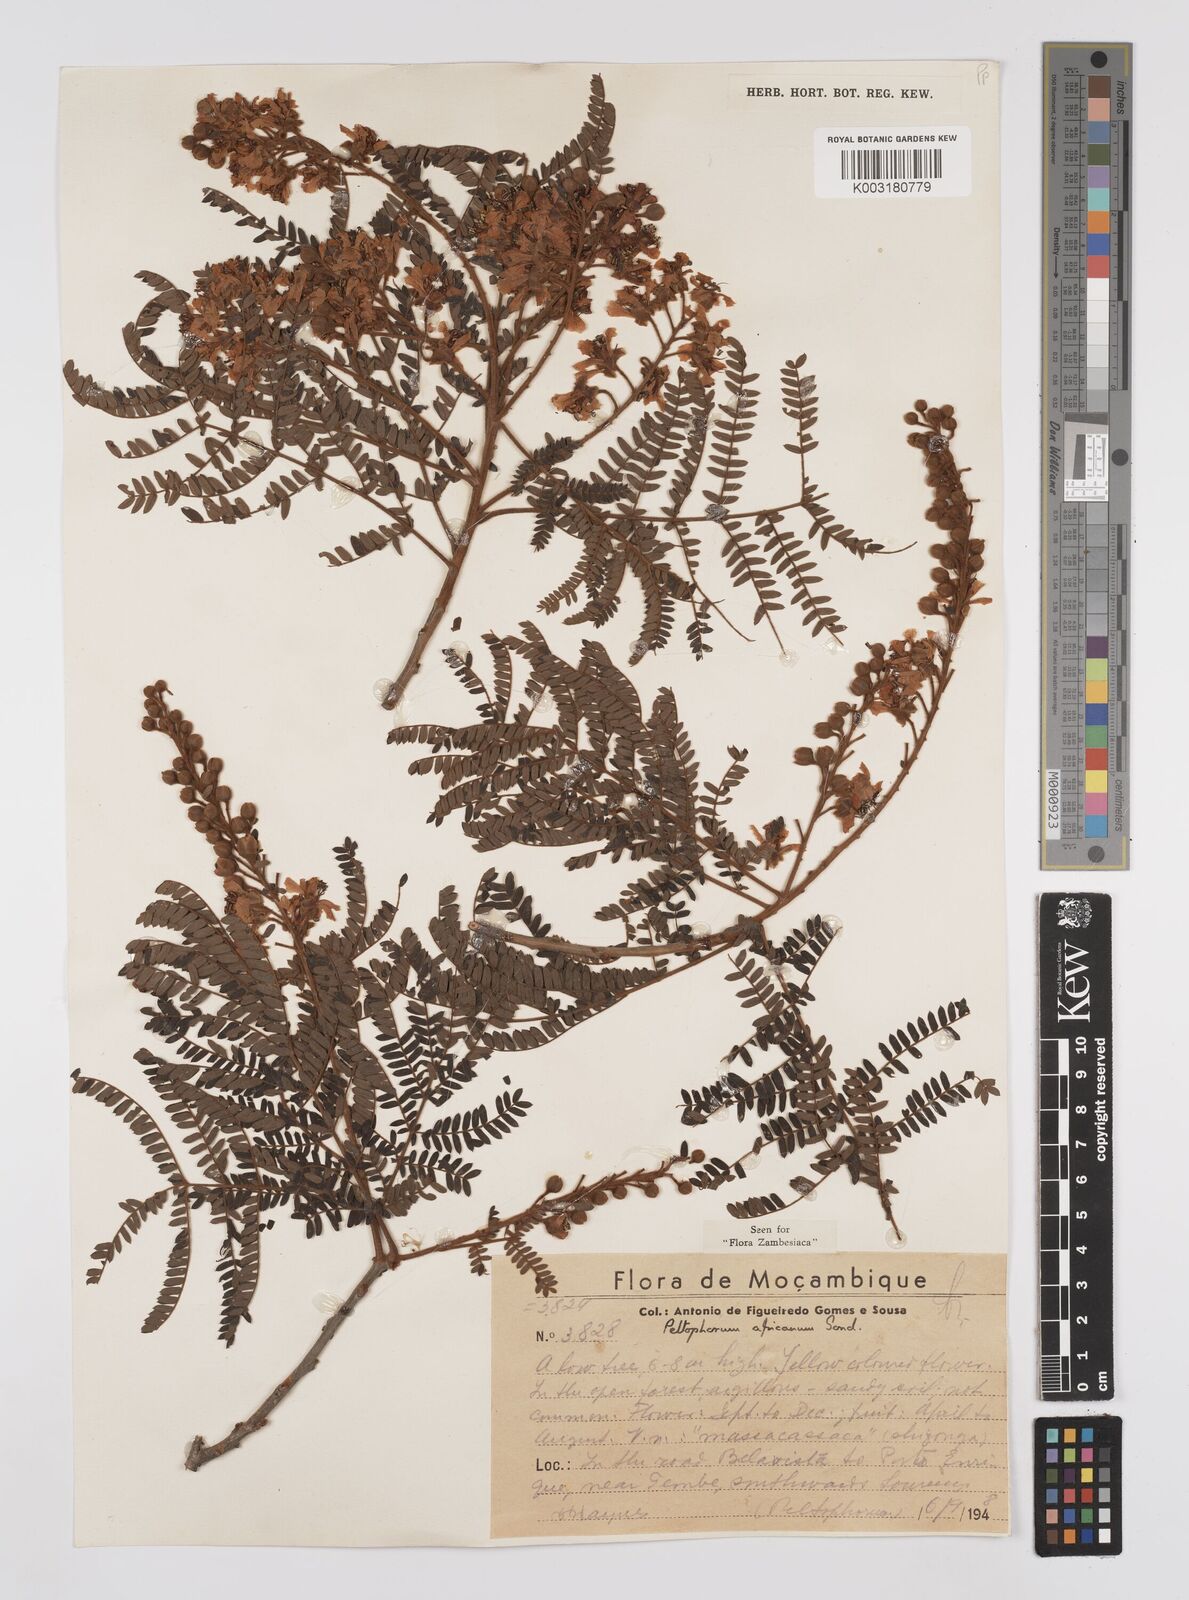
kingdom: Plantae
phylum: Tracheophyta
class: Magnoliopsida
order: Fabales
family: Fabaceae
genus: Peltophorum
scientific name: Peltophorum africanum
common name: African black wattle
